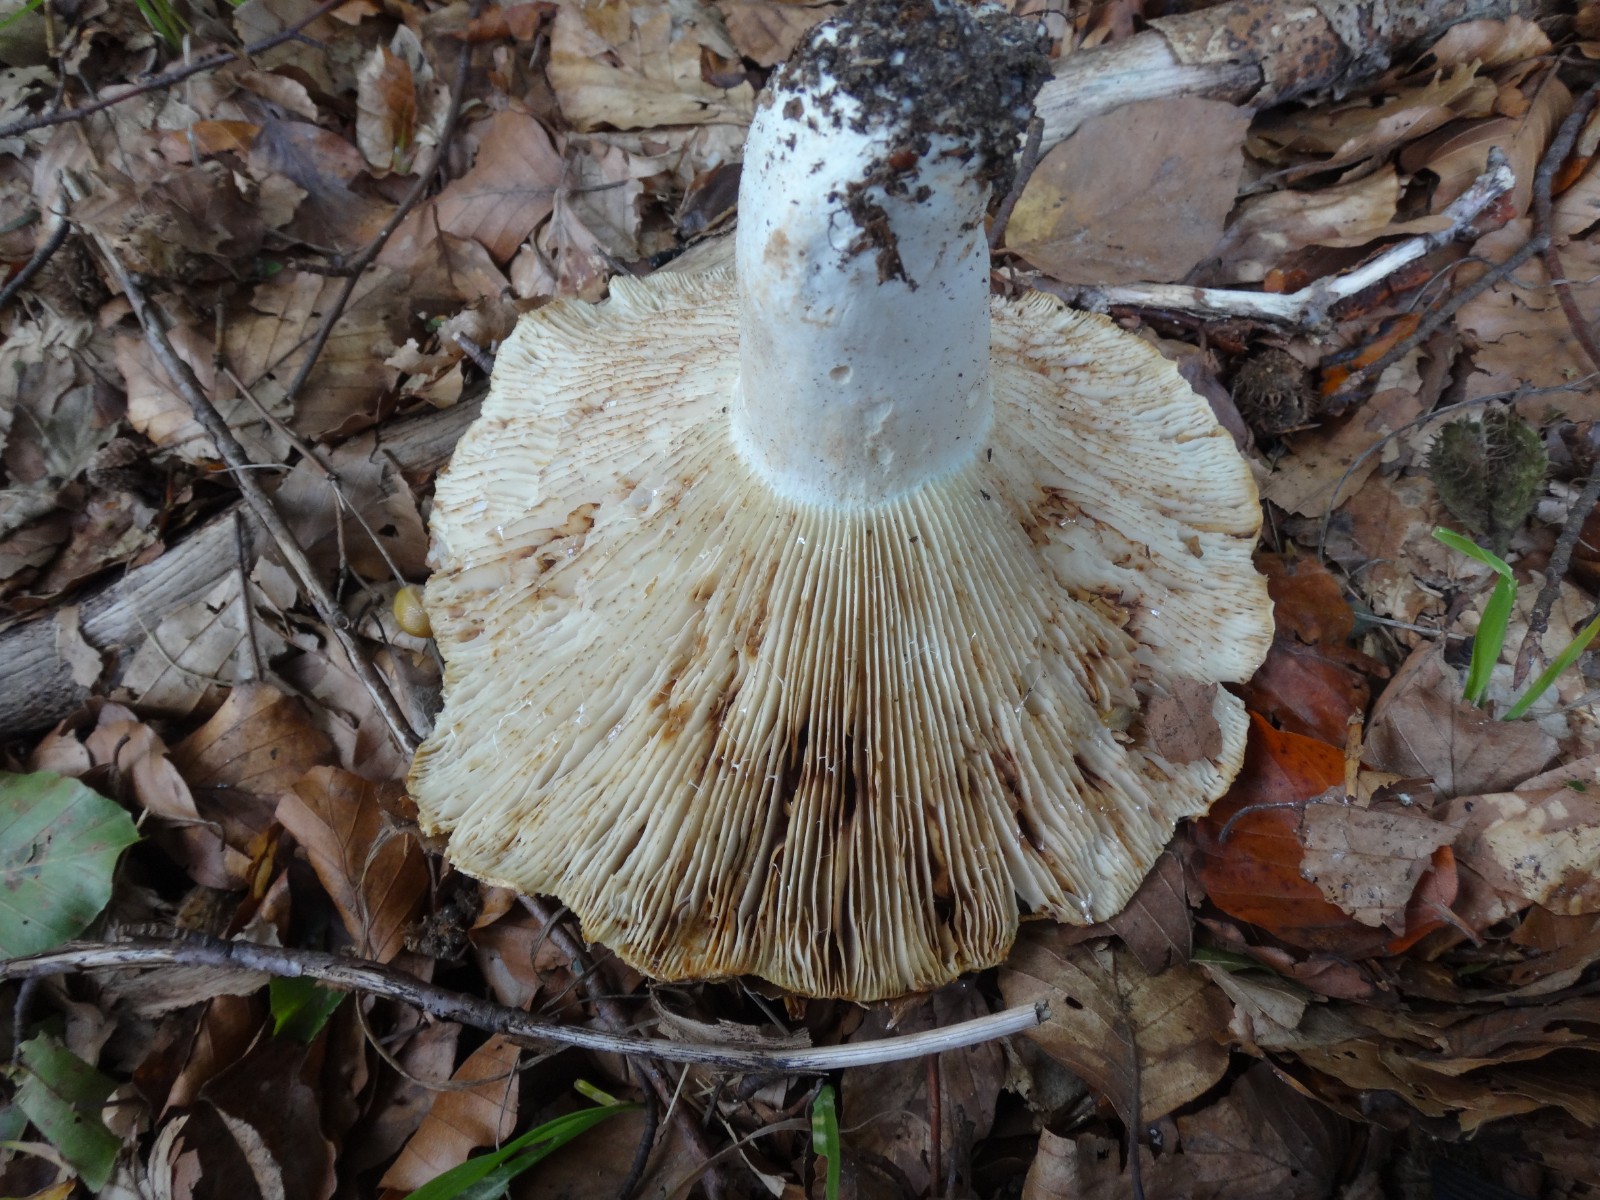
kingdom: Fungi
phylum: Basidiomycota
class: Agaricomycetes
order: Russulales
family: Russulaceae
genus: Russula
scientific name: Russula chloroides
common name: grønhalset tragt-skørhat
